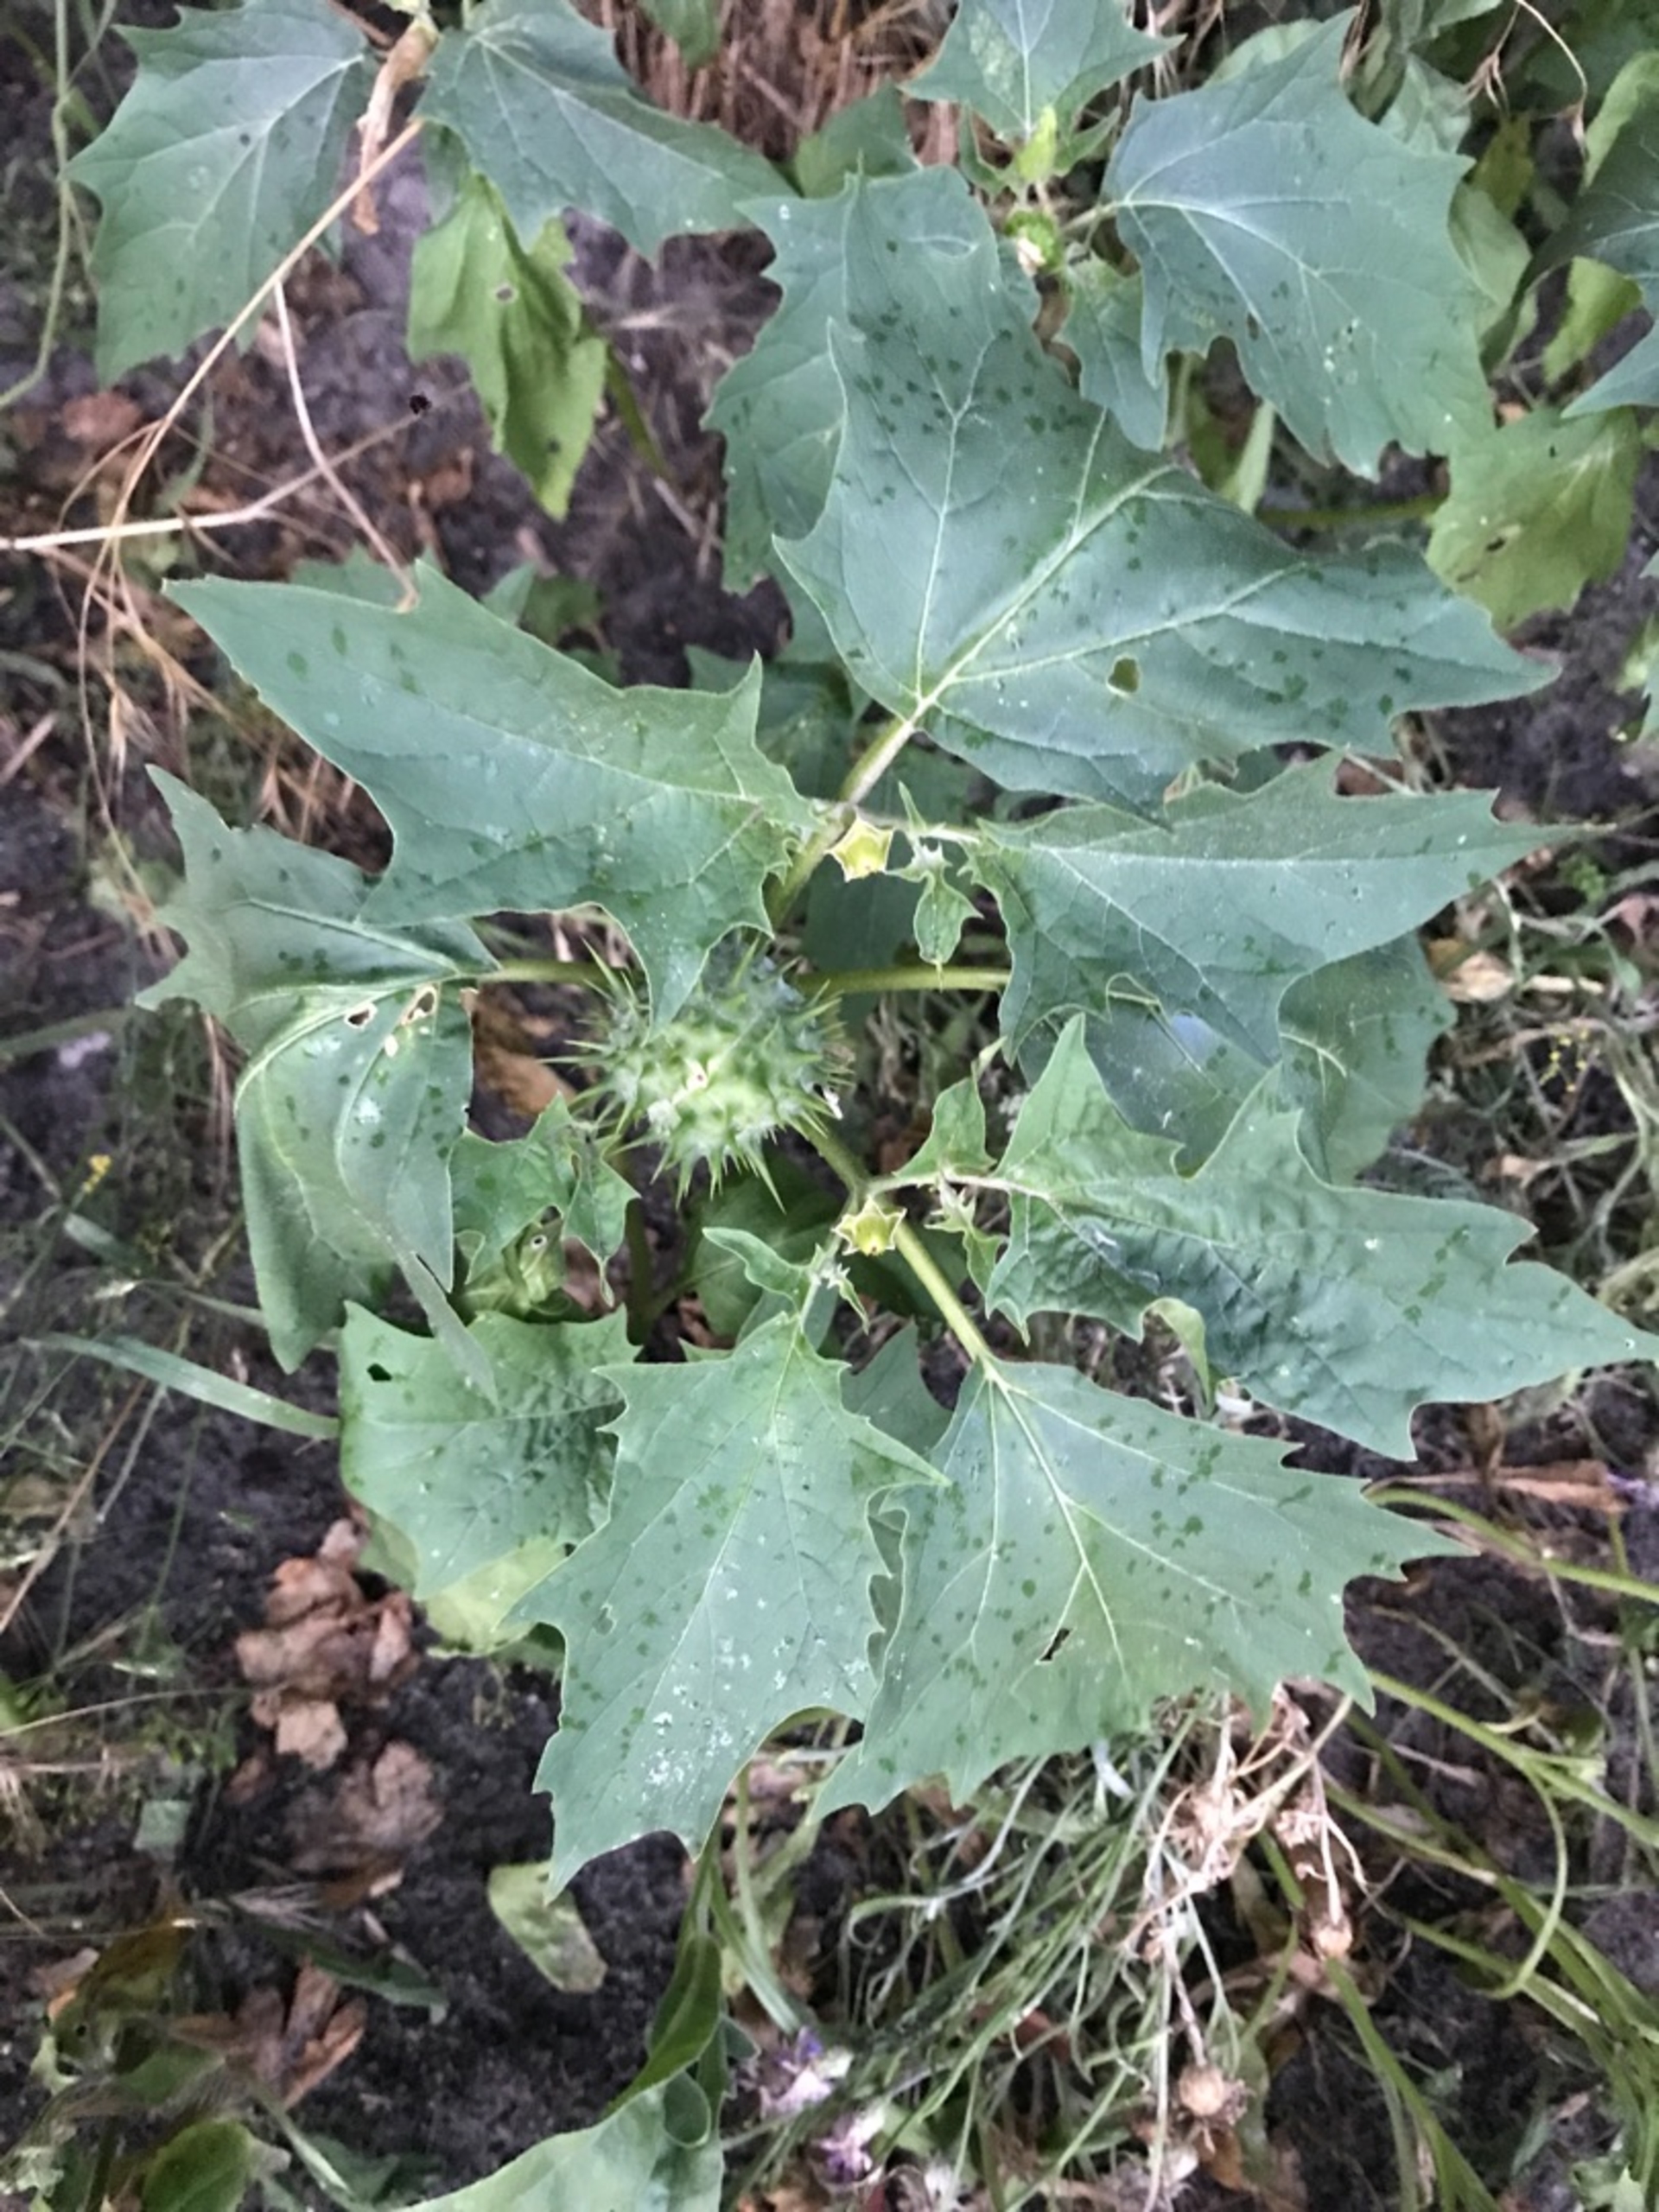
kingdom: Plantae
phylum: Tracheophyta
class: Magnoliopsida
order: Solanales
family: Solanaceae
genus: Datura
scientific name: Datura stramonium
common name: Pigæble
